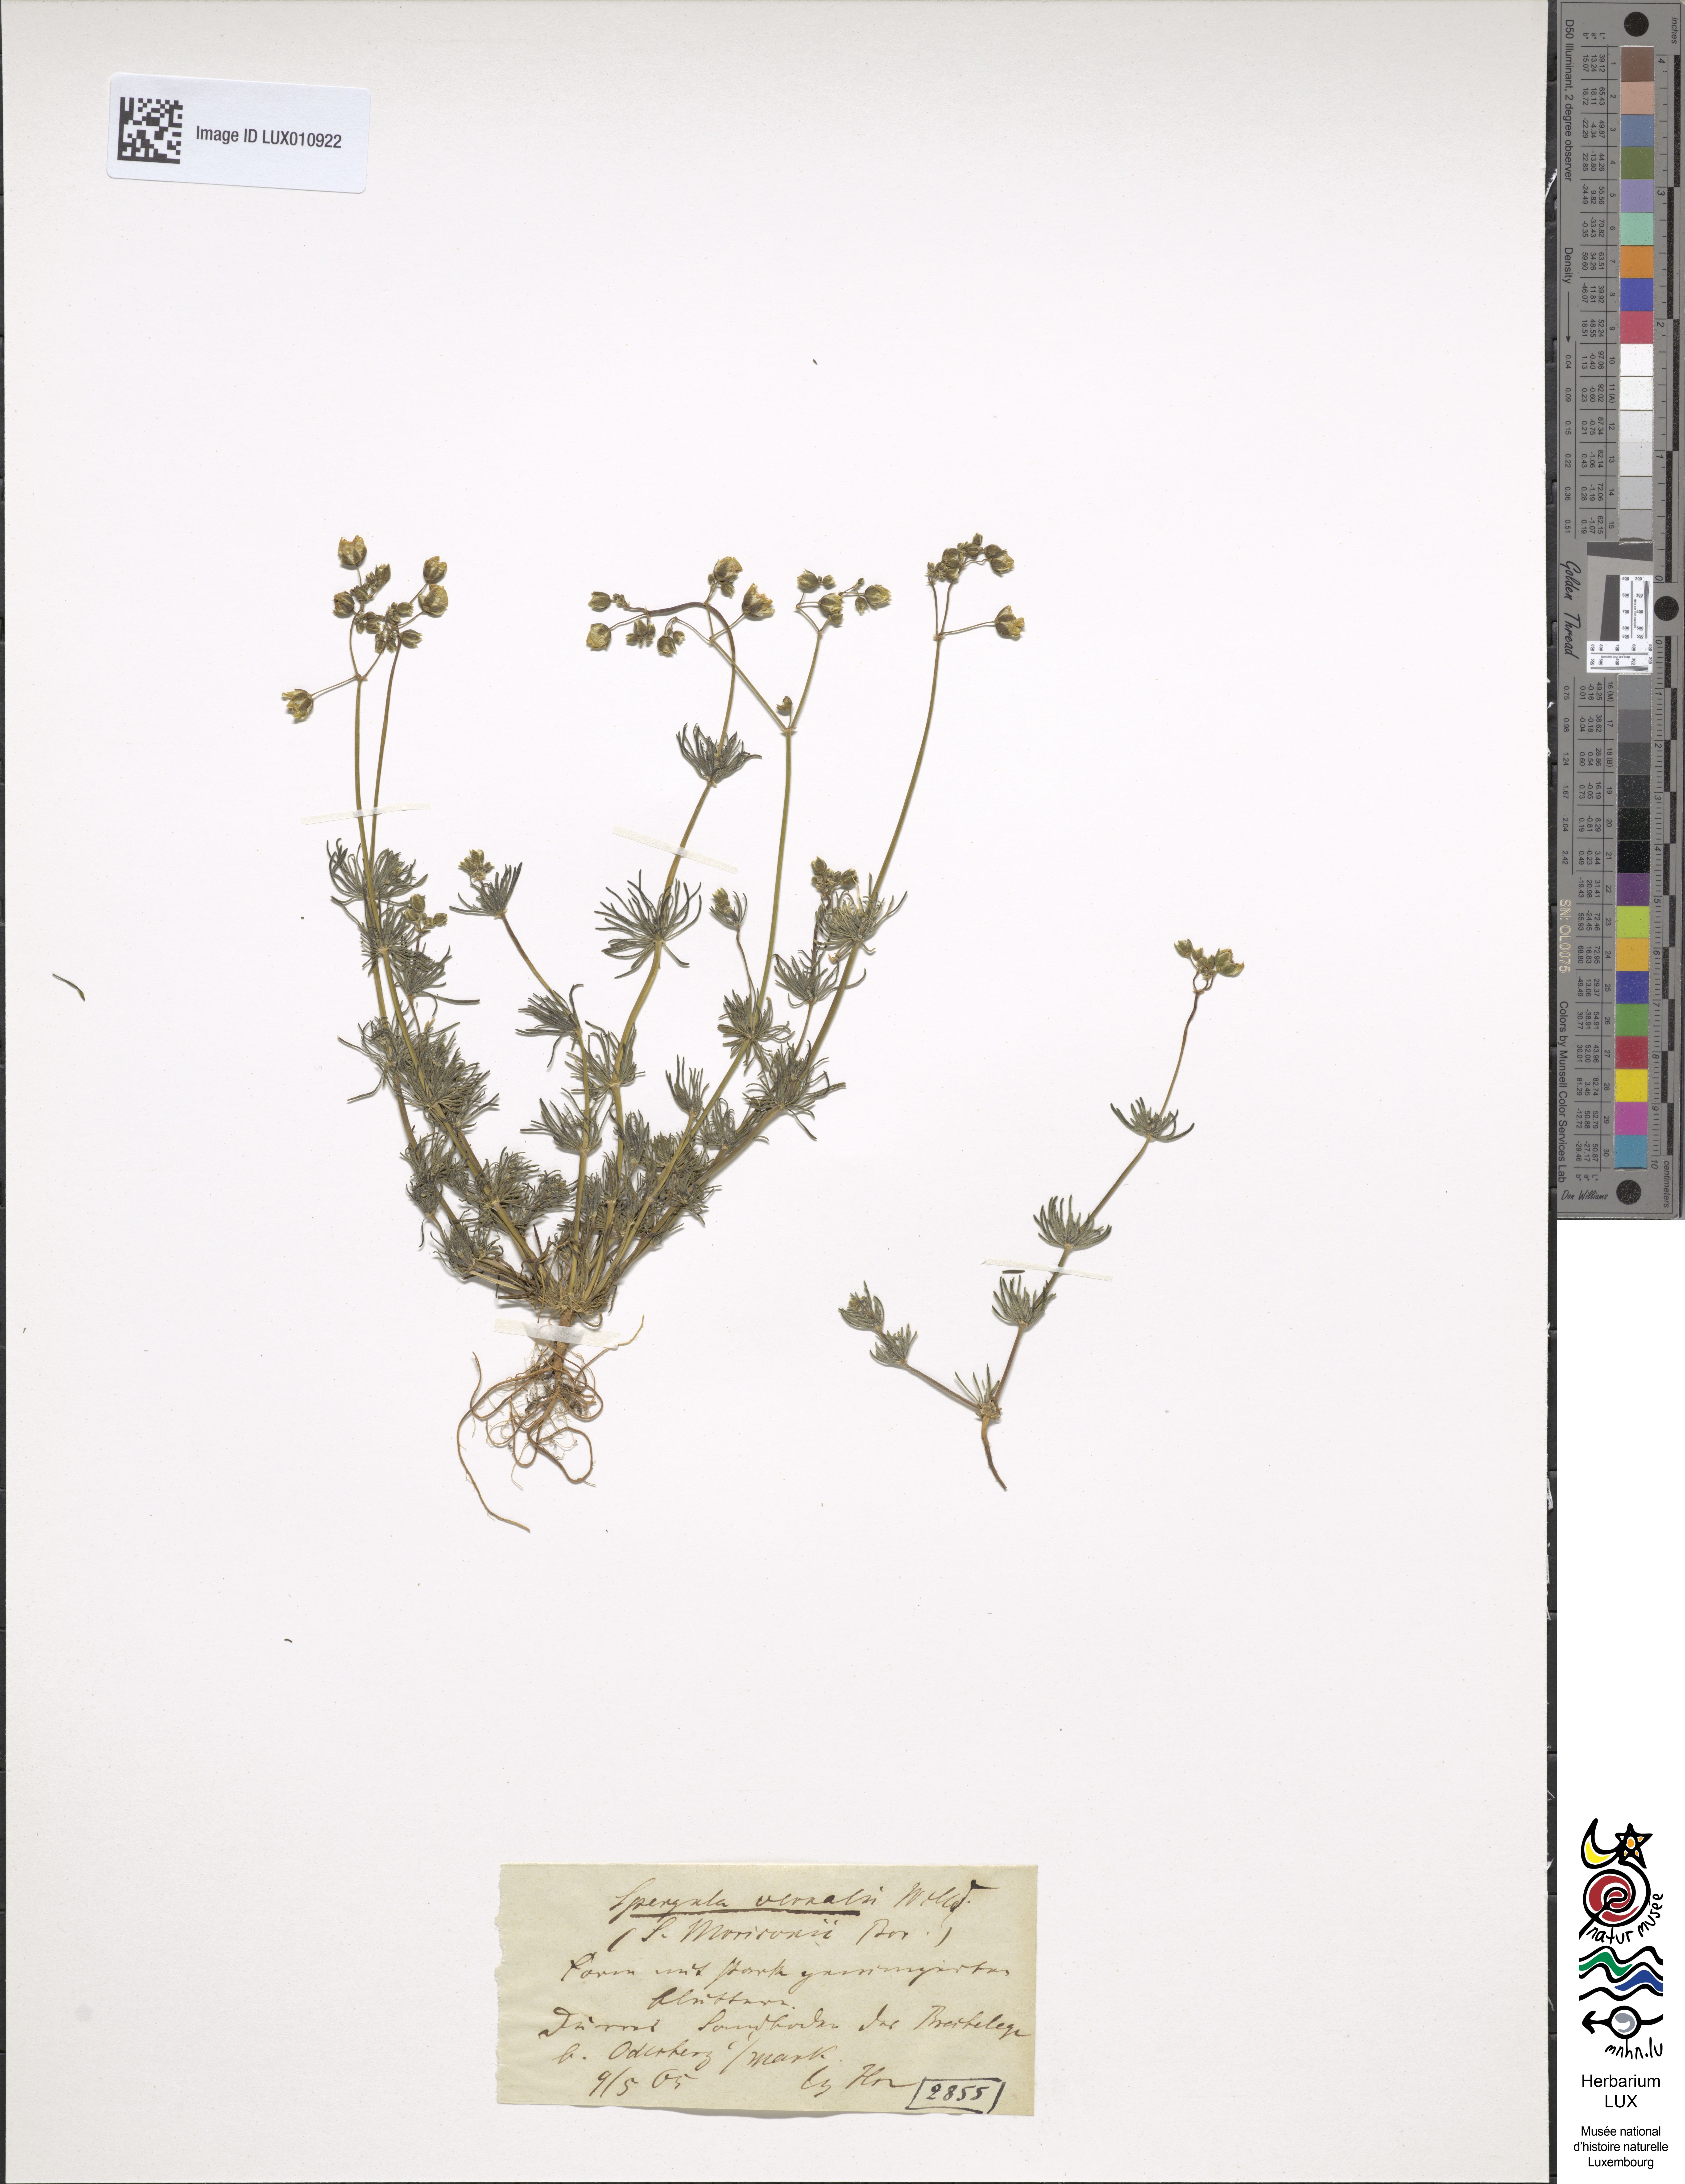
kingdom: Plantae
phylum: Tracheophyta
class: Magnoliopsida
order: Caryophyllales
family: Caryophyllaceae
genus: Spergula
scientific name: Spergula morisonii
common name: Pearlwort spurrey
